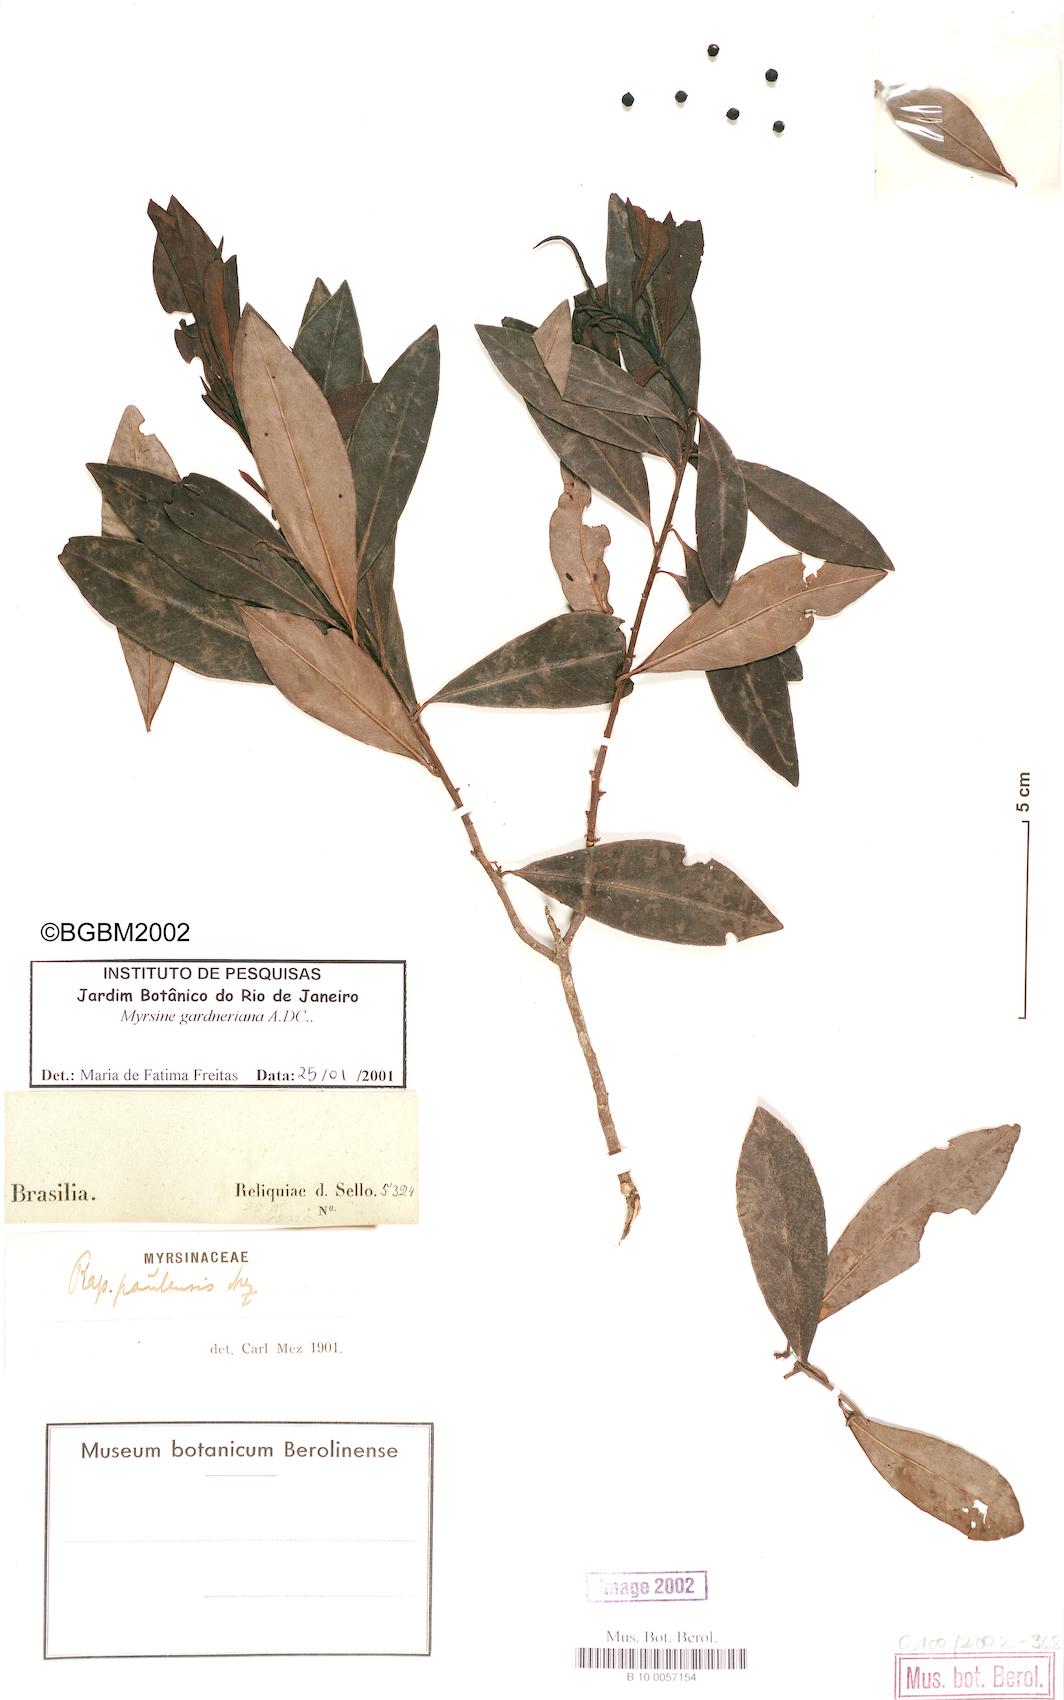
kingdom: Plantae
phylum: Tracheophyta
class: Magnoliopsida
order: Ericales
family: Primulaceae
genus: Myrsine
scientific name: Myrsine gardneriana
